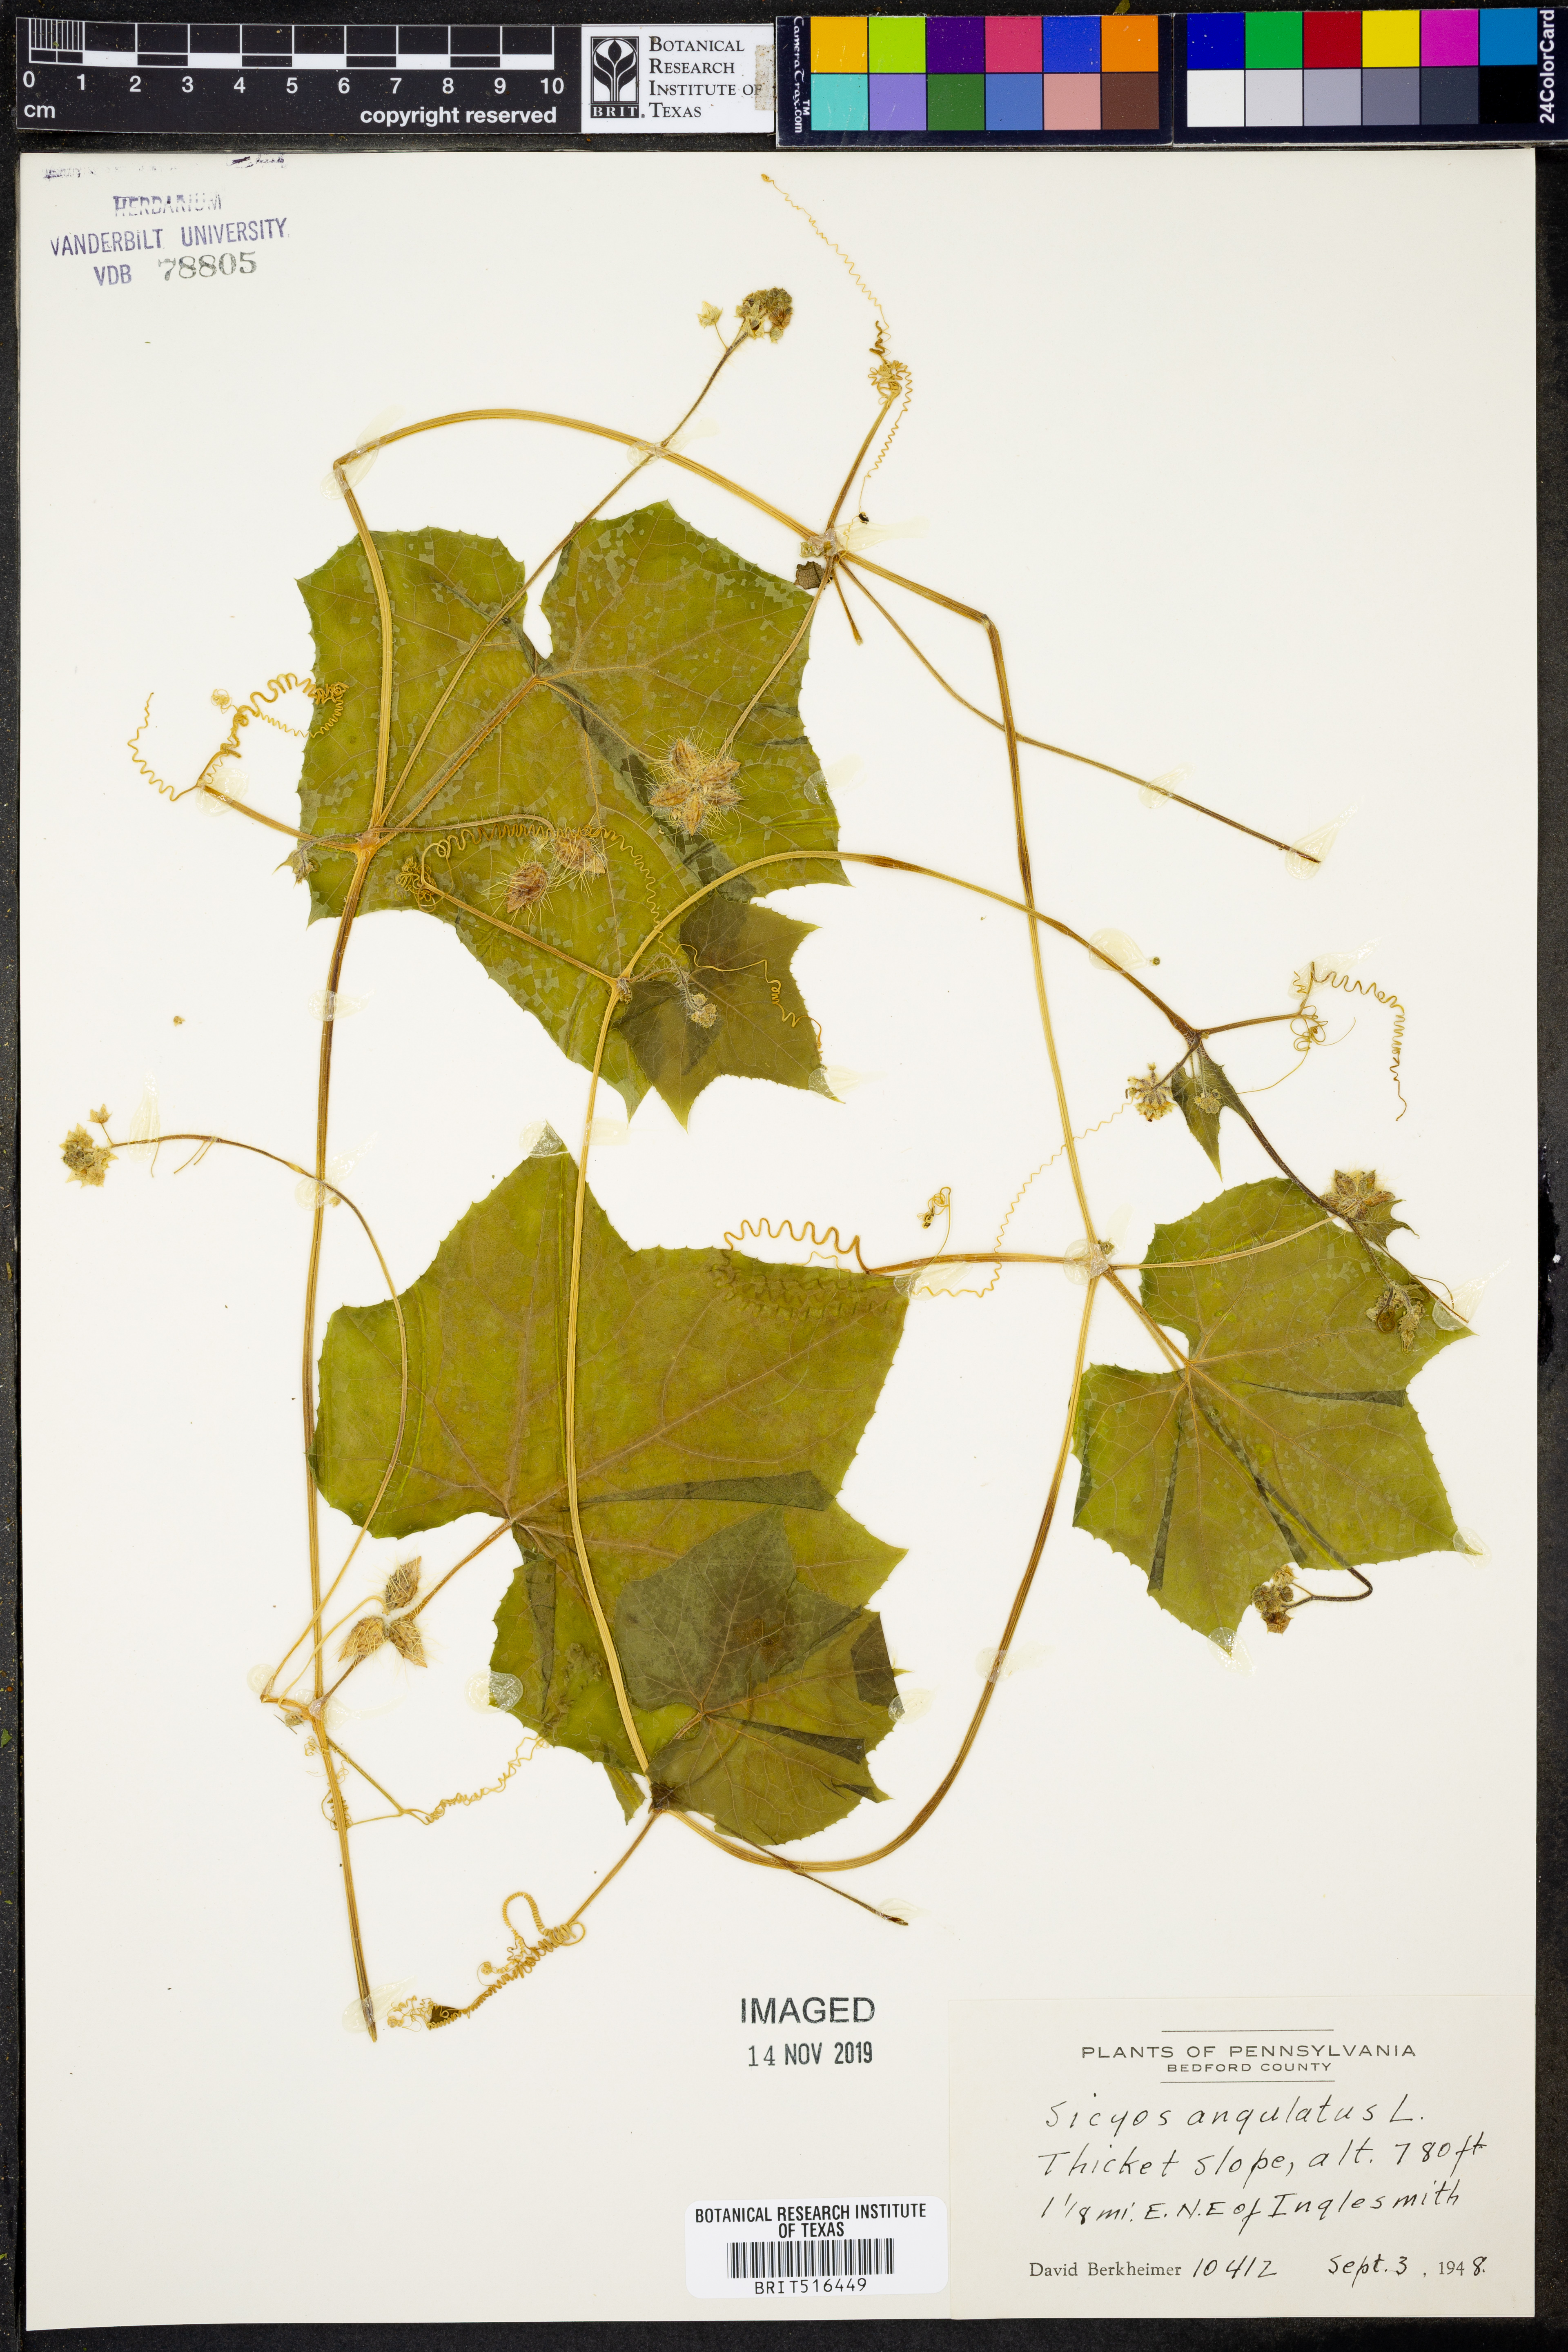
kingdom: Plantae
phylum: Tracheophyta
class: Magnoliopsida
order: Cucurbitales
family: Cucurbitaceae
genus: Sicyos
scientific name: Sicyos angulatus
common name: Angled burr cucumber
